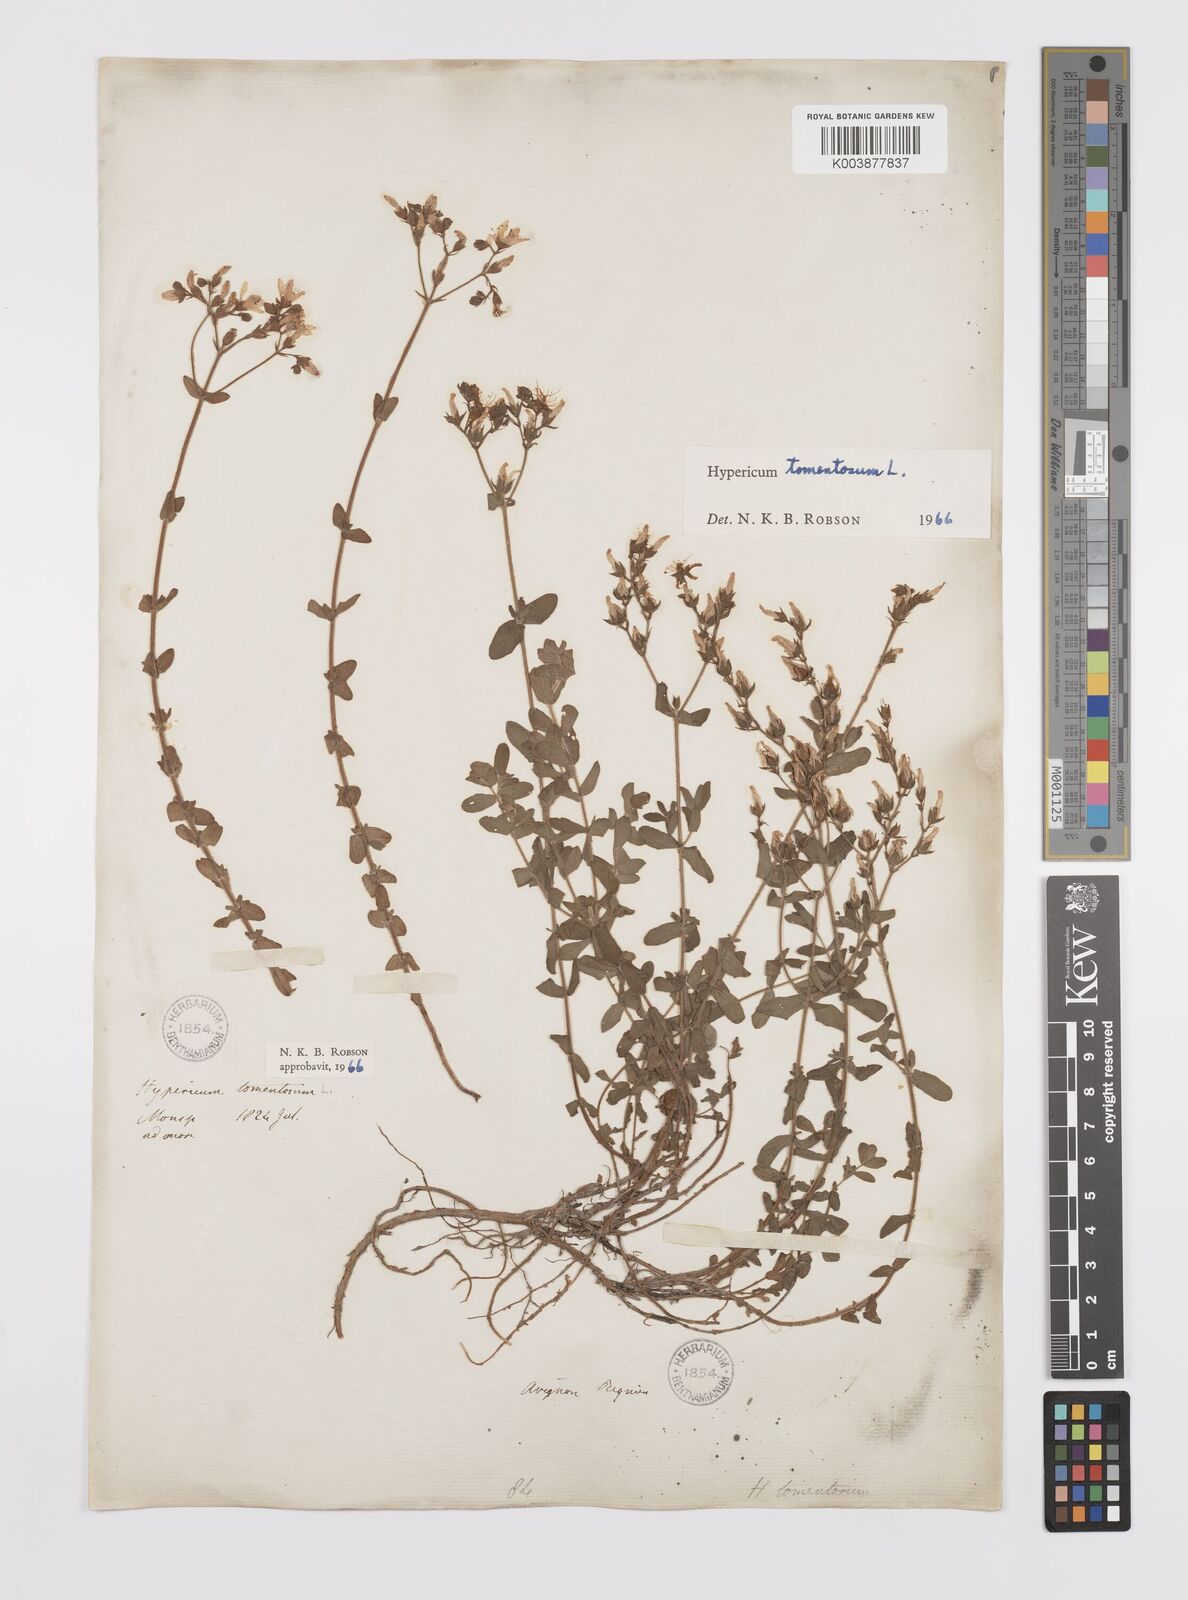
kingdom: Plantae
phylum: Tracheophyta
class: Magnoliopsida
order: Malpighiales
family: Hypericaceae
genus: Hypericum
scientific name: Hypericum tomentosum
